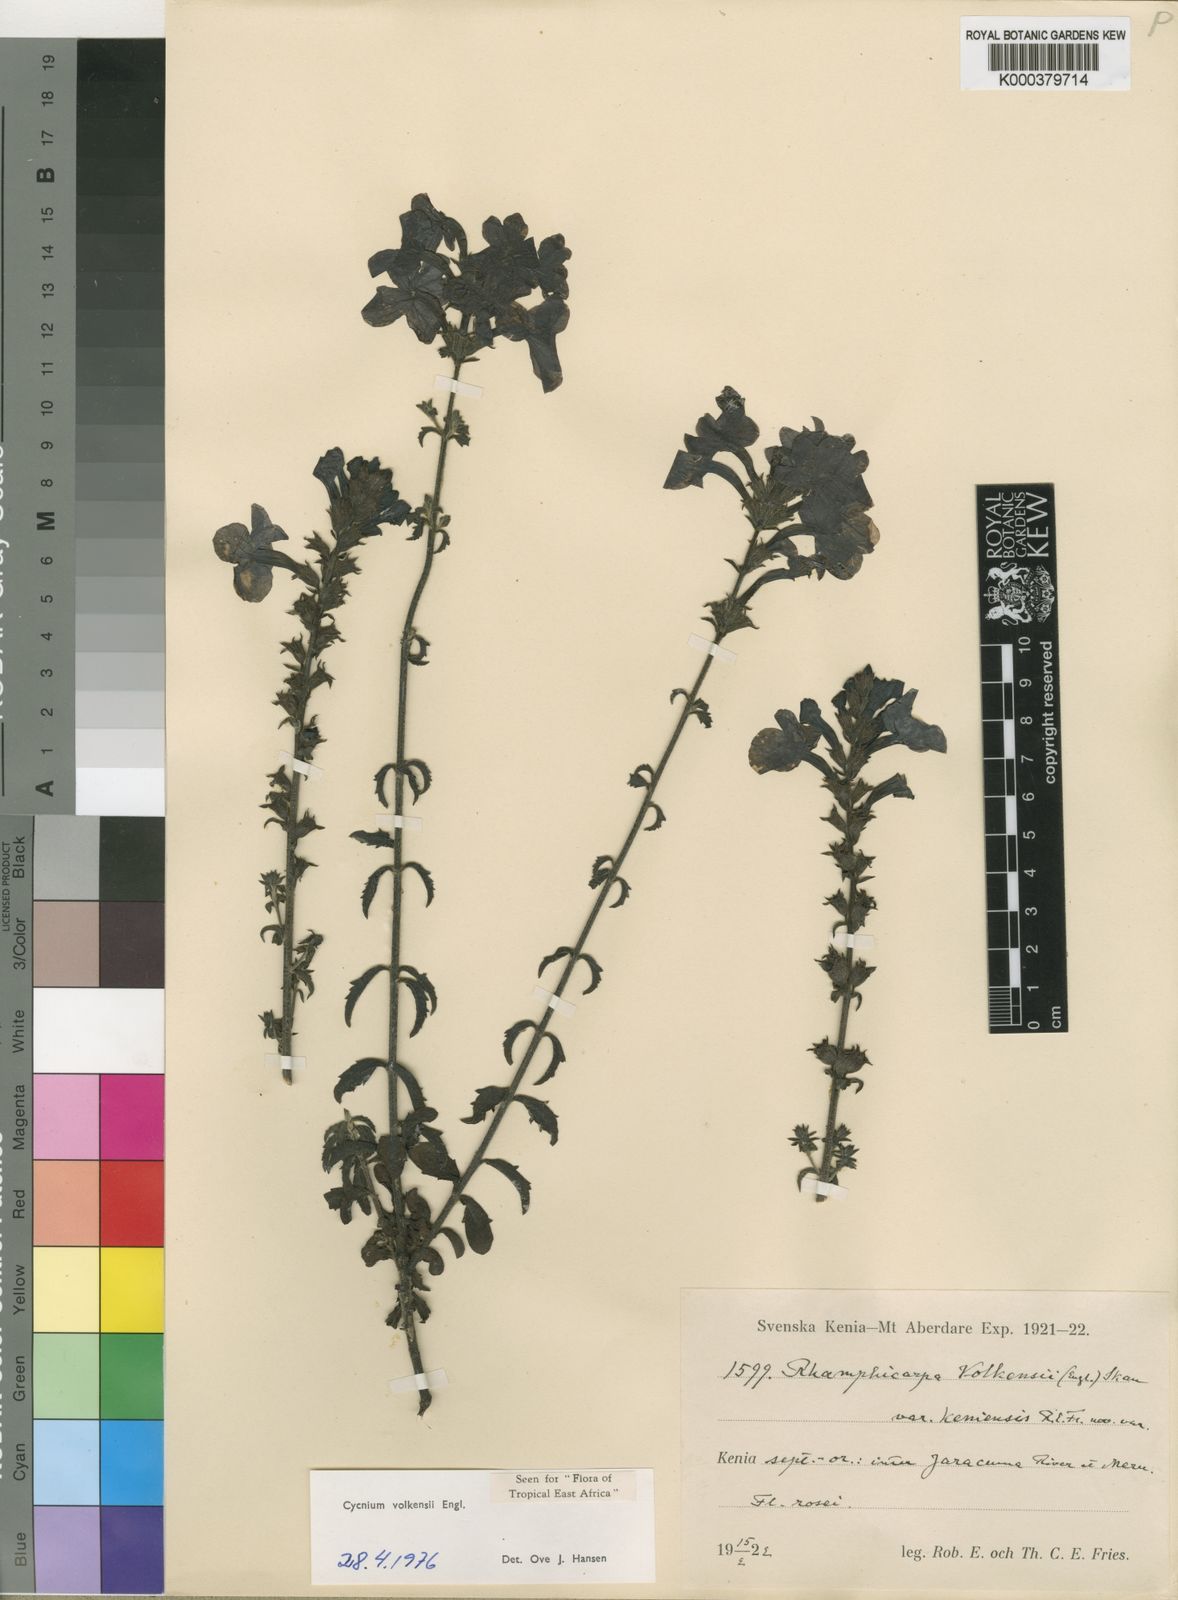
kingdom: Plantae
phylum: Tracheophyta
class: Magnoliopsida
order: Lamiales
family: Orobanchaceae
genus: Cycnium
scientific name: Cycnium volkensii
